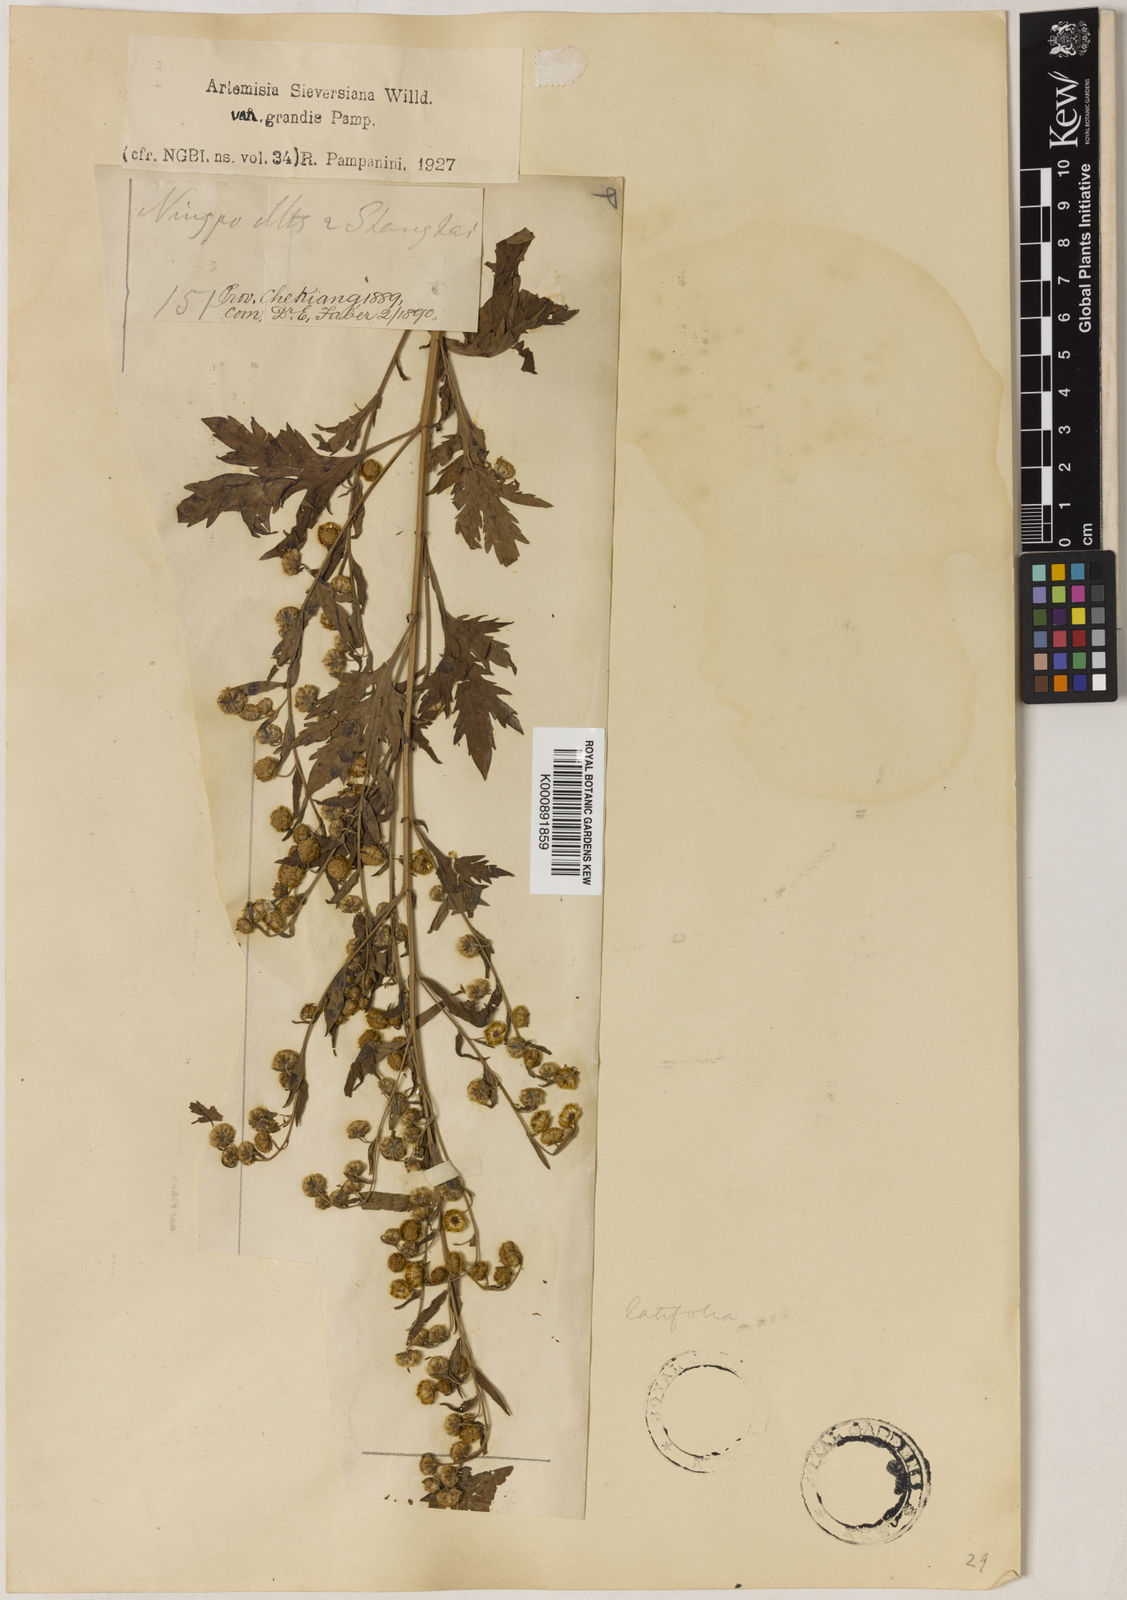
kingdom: Plantae
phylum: Tracheophyta
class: Magnoliopsida
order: Asterales
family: Asteraceae
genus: Artemisia
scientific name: Artemisia
